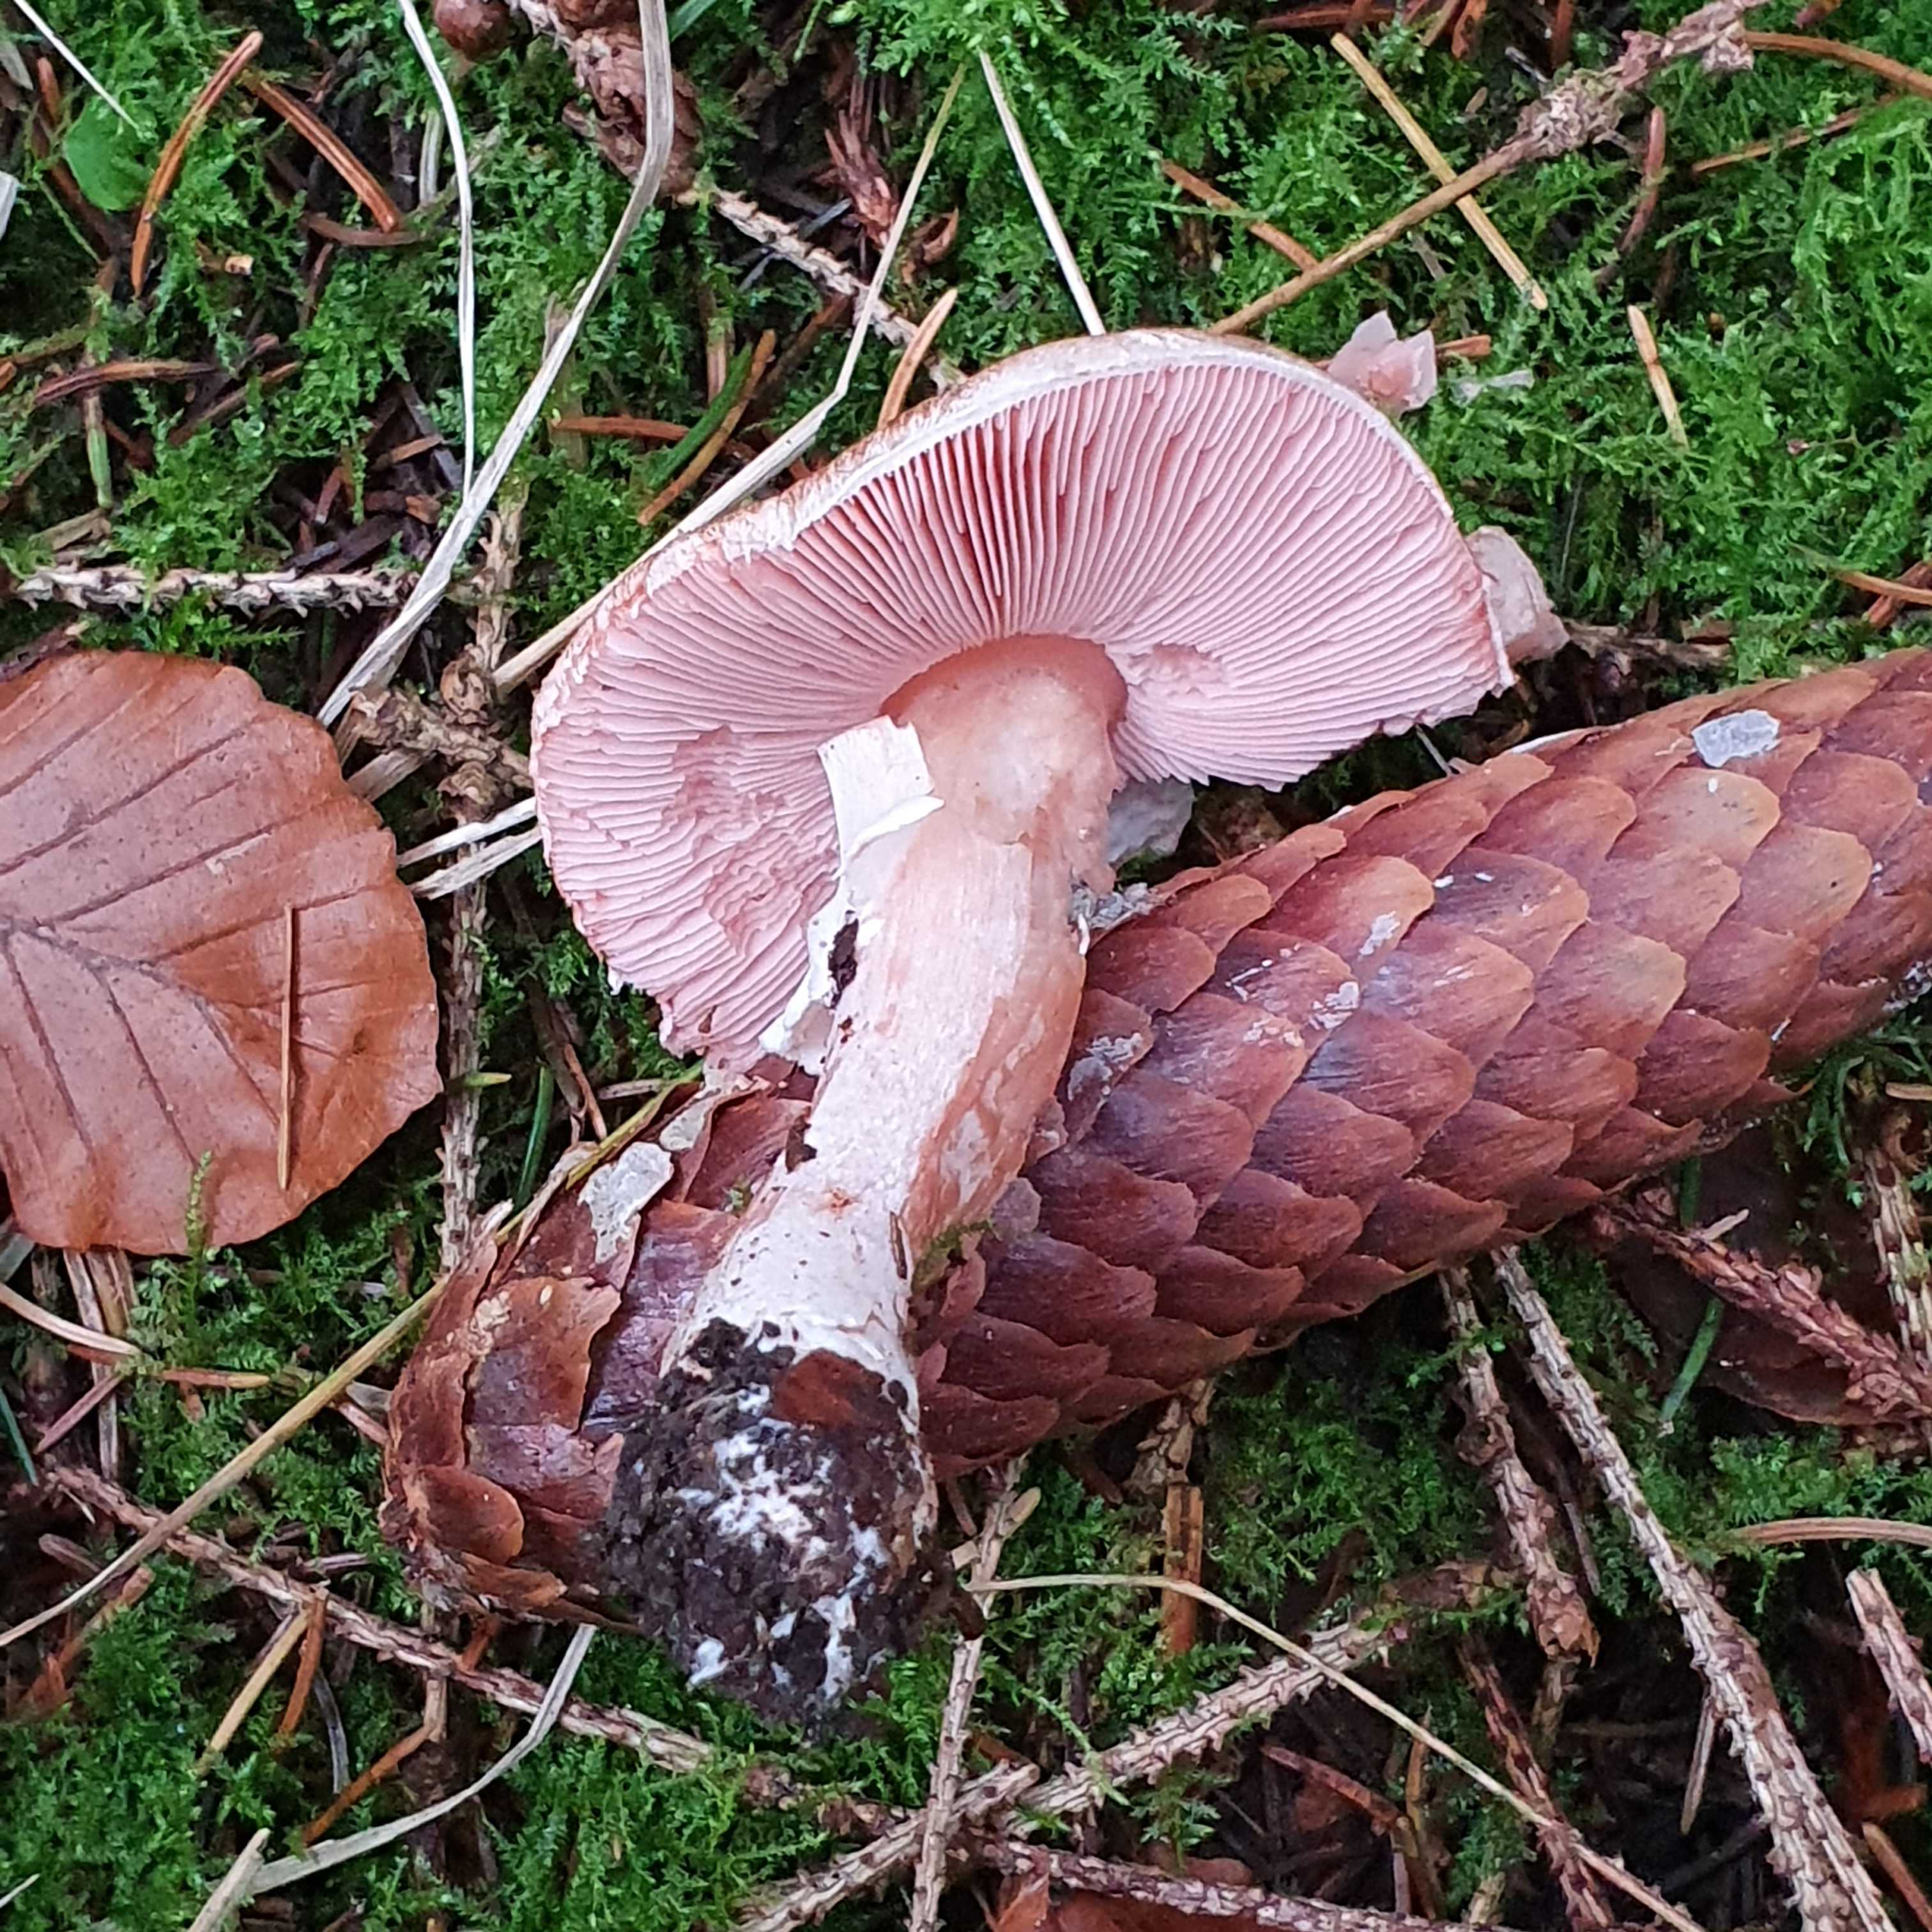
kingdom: Fungi
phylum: Basidiomycota
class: Agaricomycetes
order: Agaricales
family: Agaricaceae
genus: Agaricus
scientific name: Agaricus
